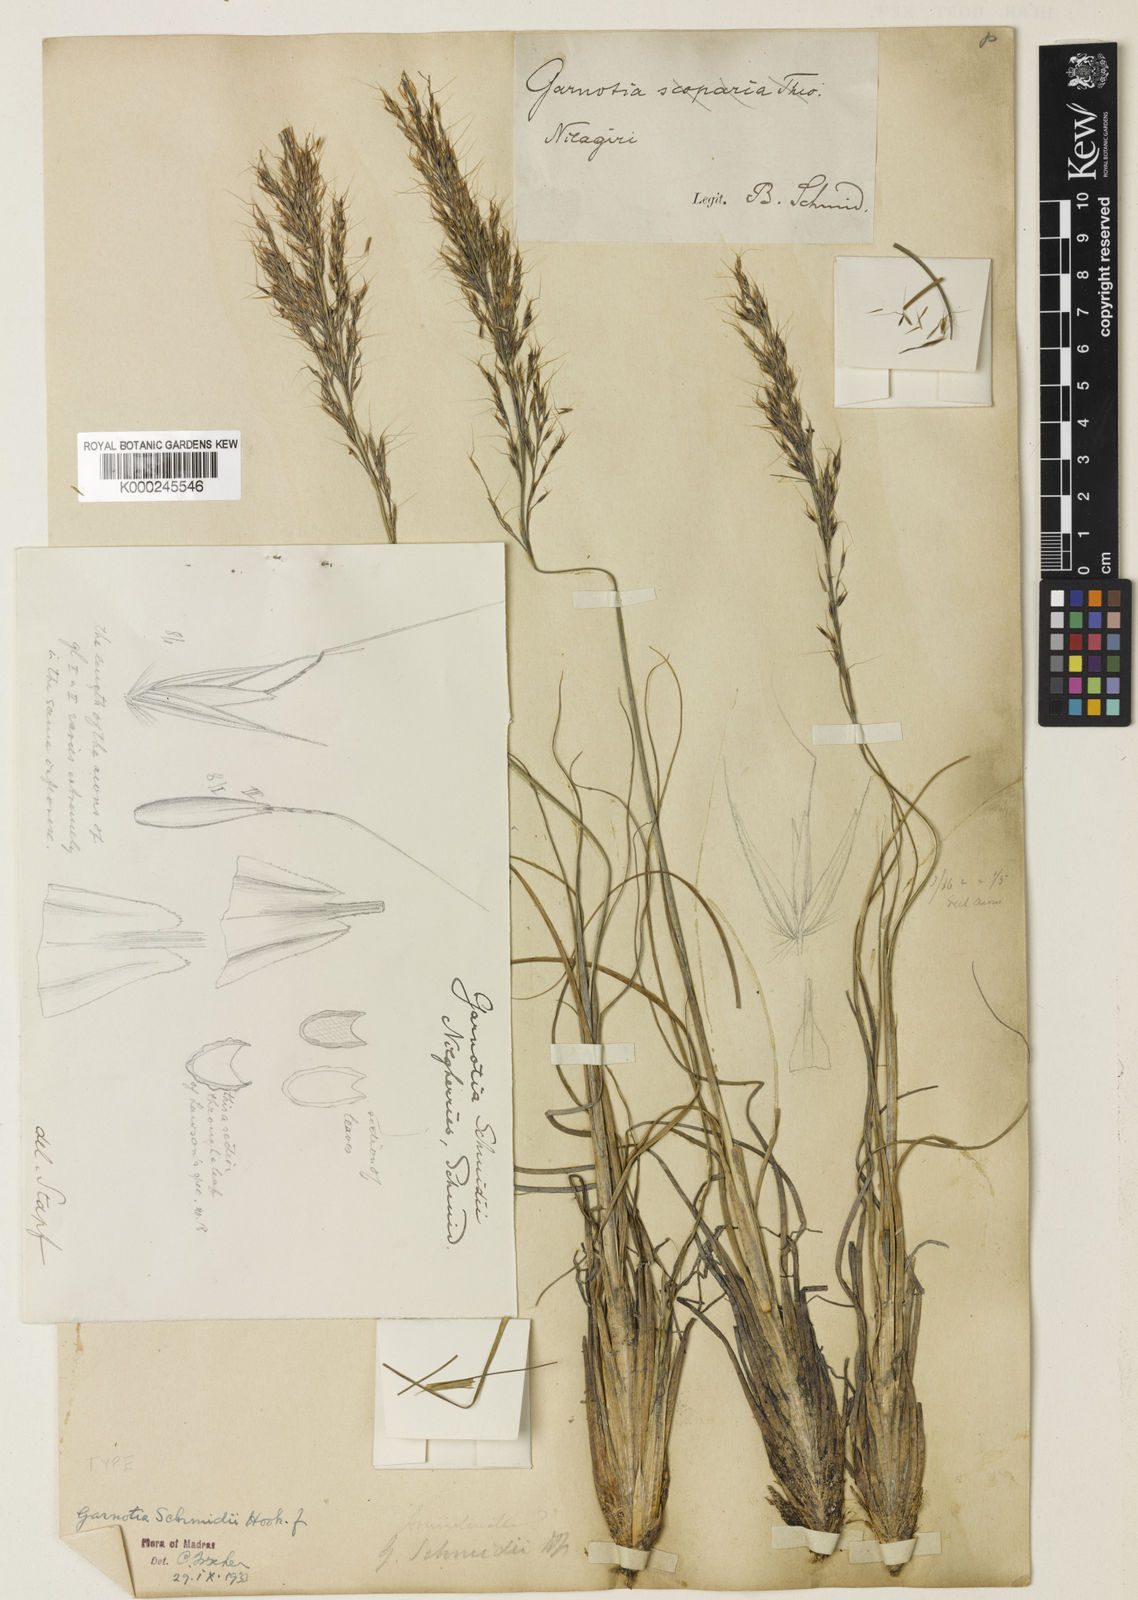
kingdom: Plantae
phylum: Tracheophyta
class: Liliopsida
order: Poales
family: Poaceae
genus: Garnotia
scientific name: Garnotia elata
